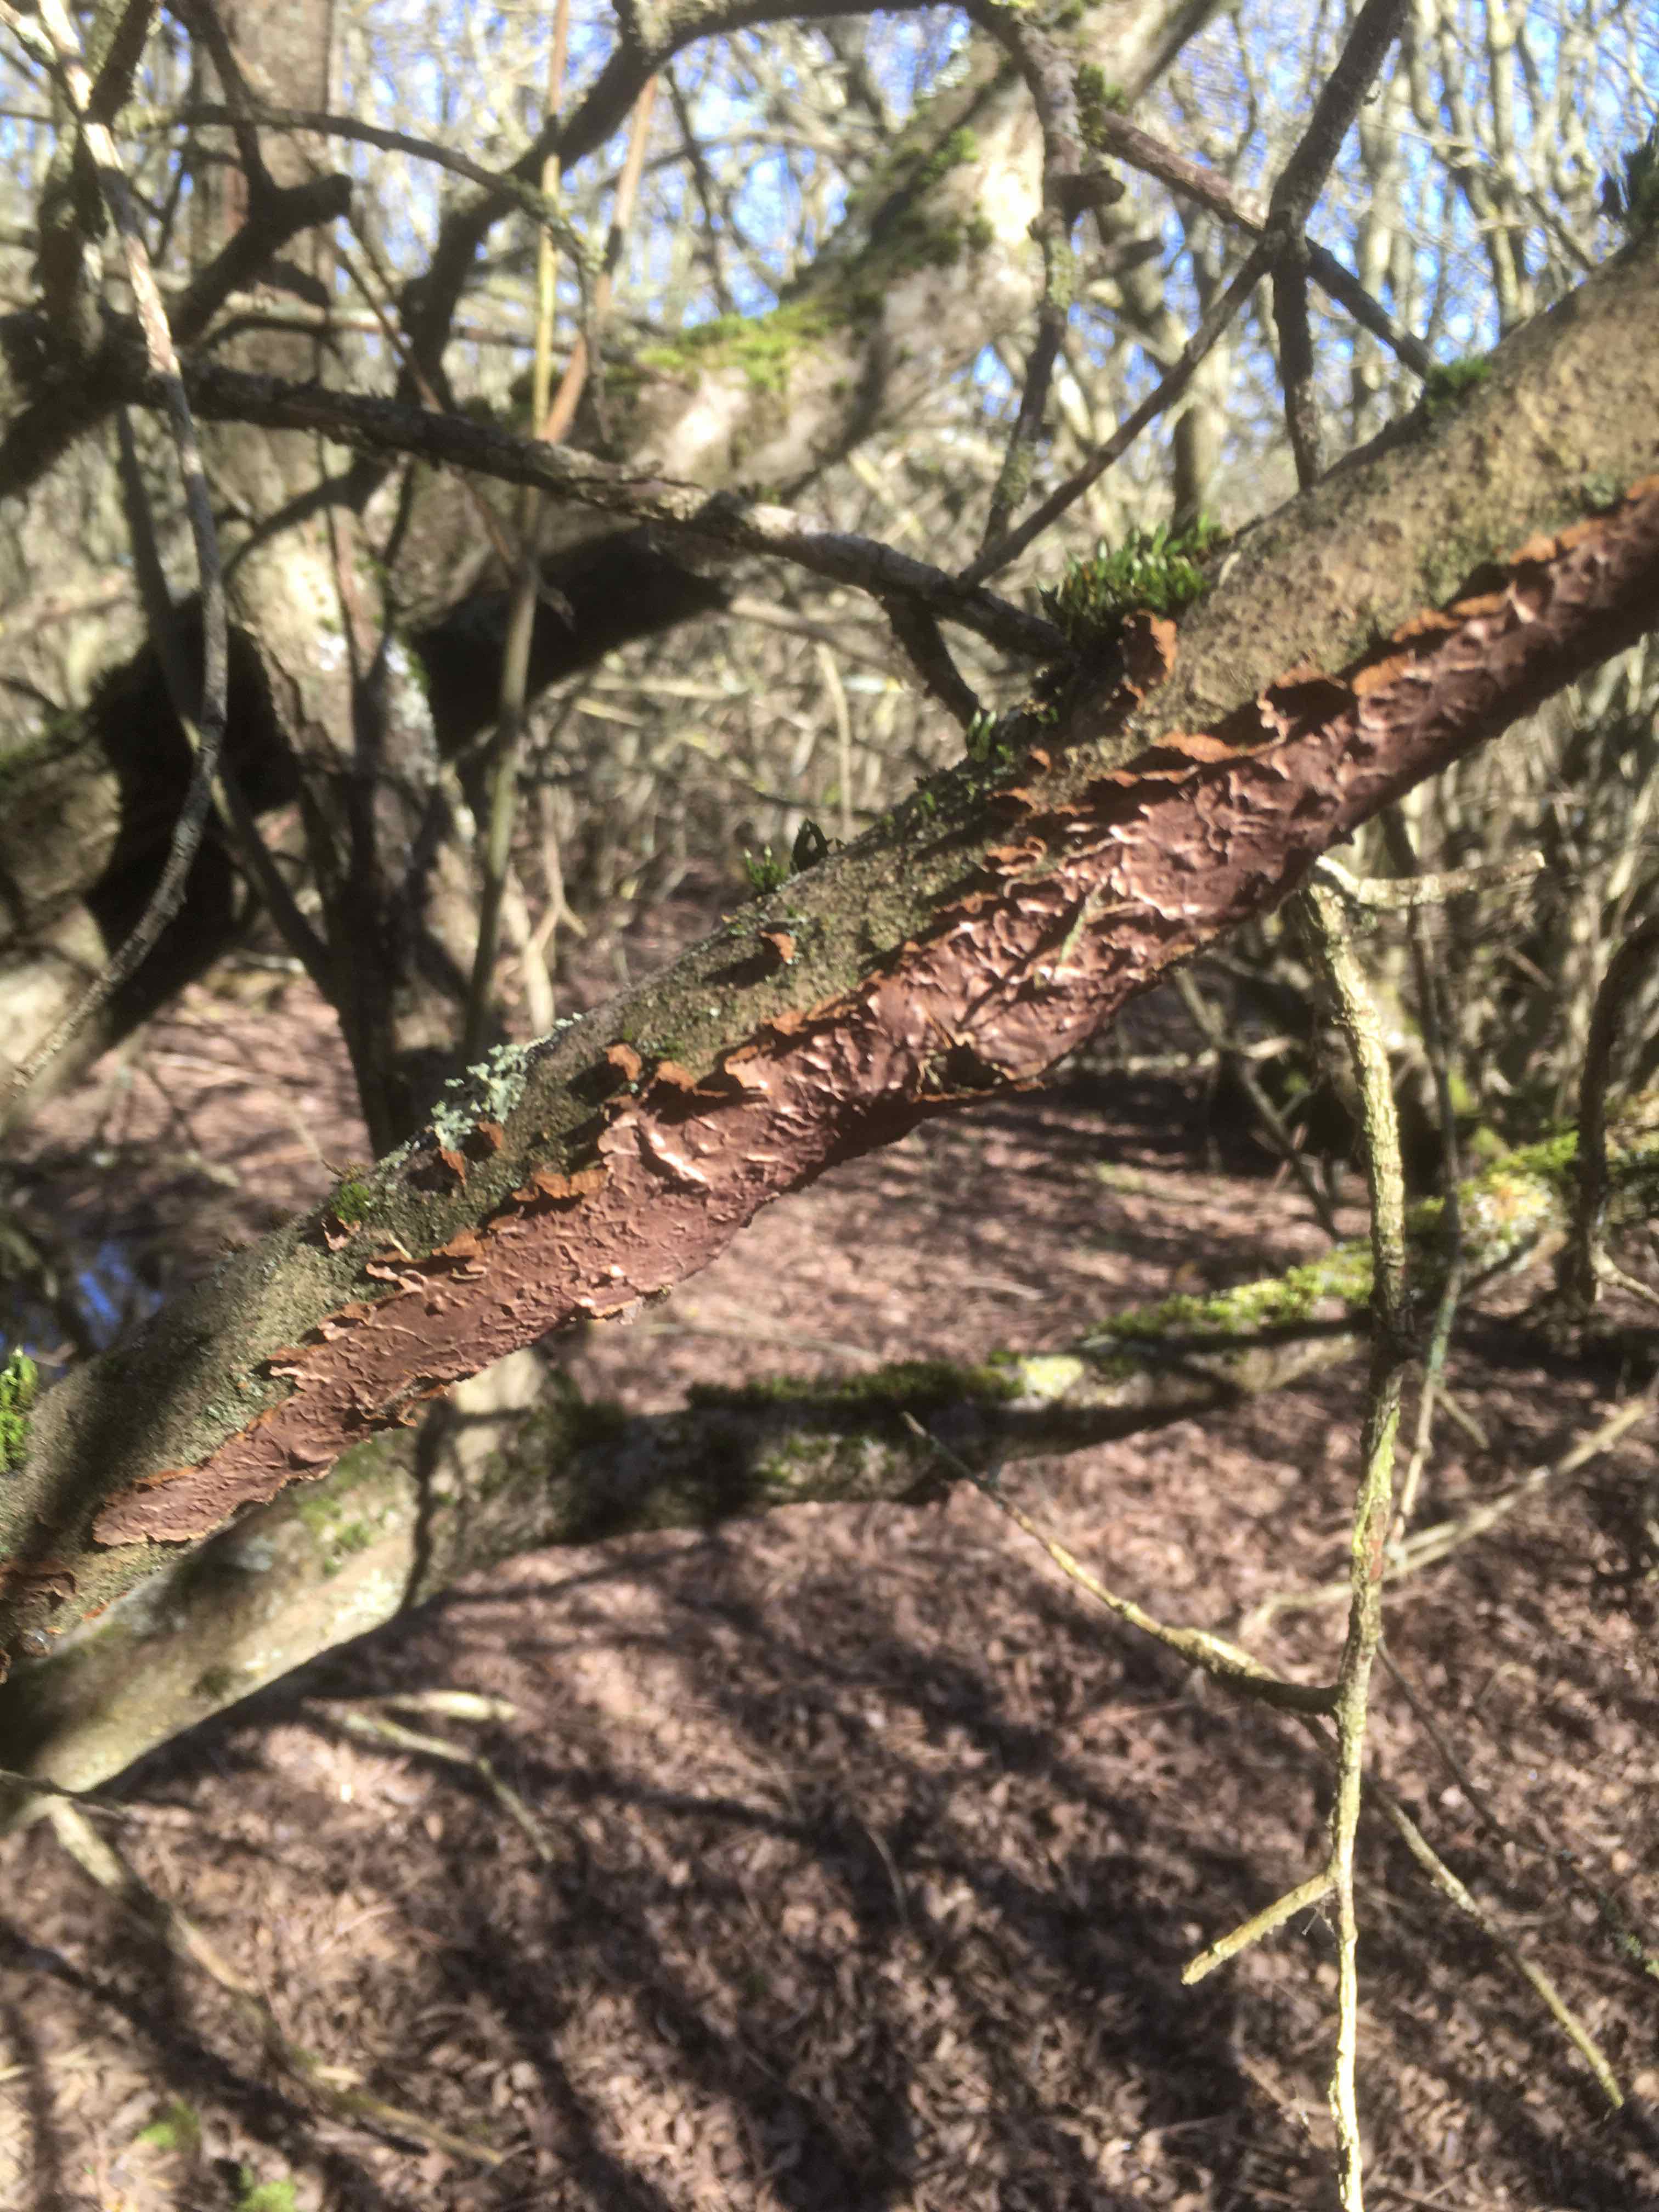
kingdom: Fungi
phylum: Basidiomycota
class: Agaricomycetes
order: Hymenochaetales
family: Hymenochaetaceae
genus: Hydnoporia
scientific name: Hydnoporia tabacina
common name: tobaksbrun ruslædersvamp
